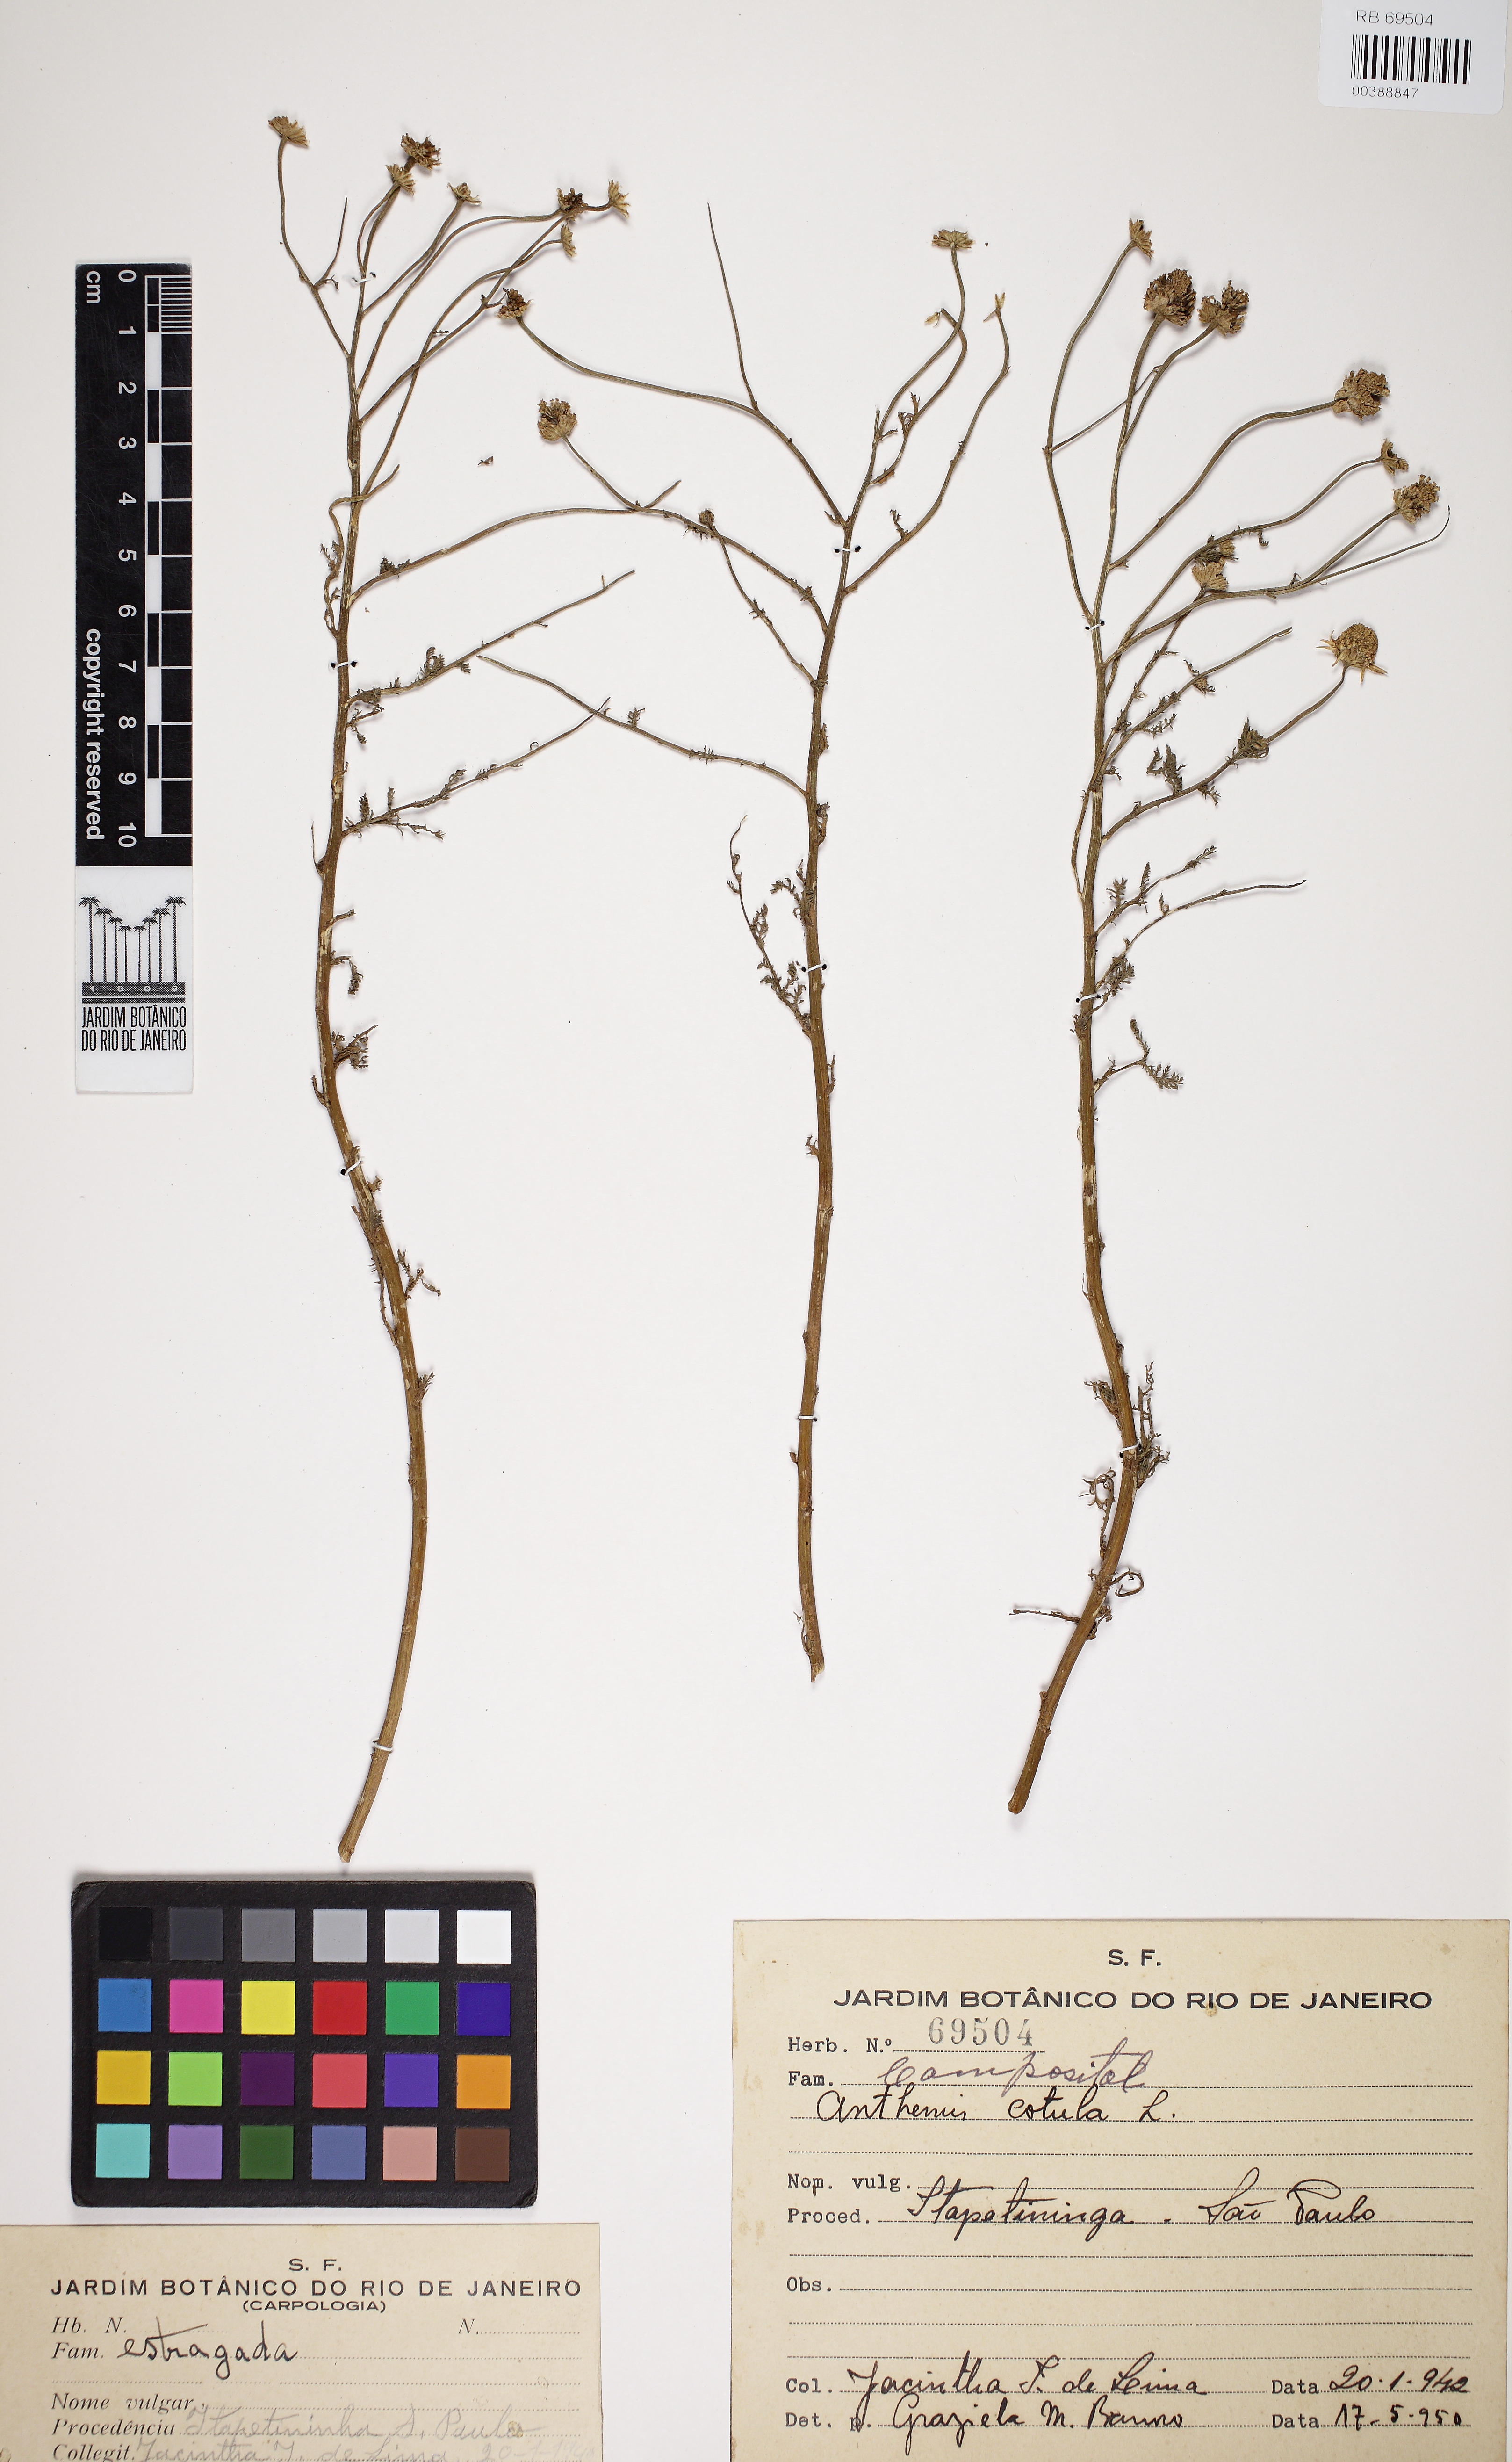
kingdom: Plantae
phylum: Tracheophyta
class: Magnoliopsida
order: Asterales
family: Asteraceae
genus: Anthemis
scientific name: Anthemis cotula
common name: Stinking chamomile
